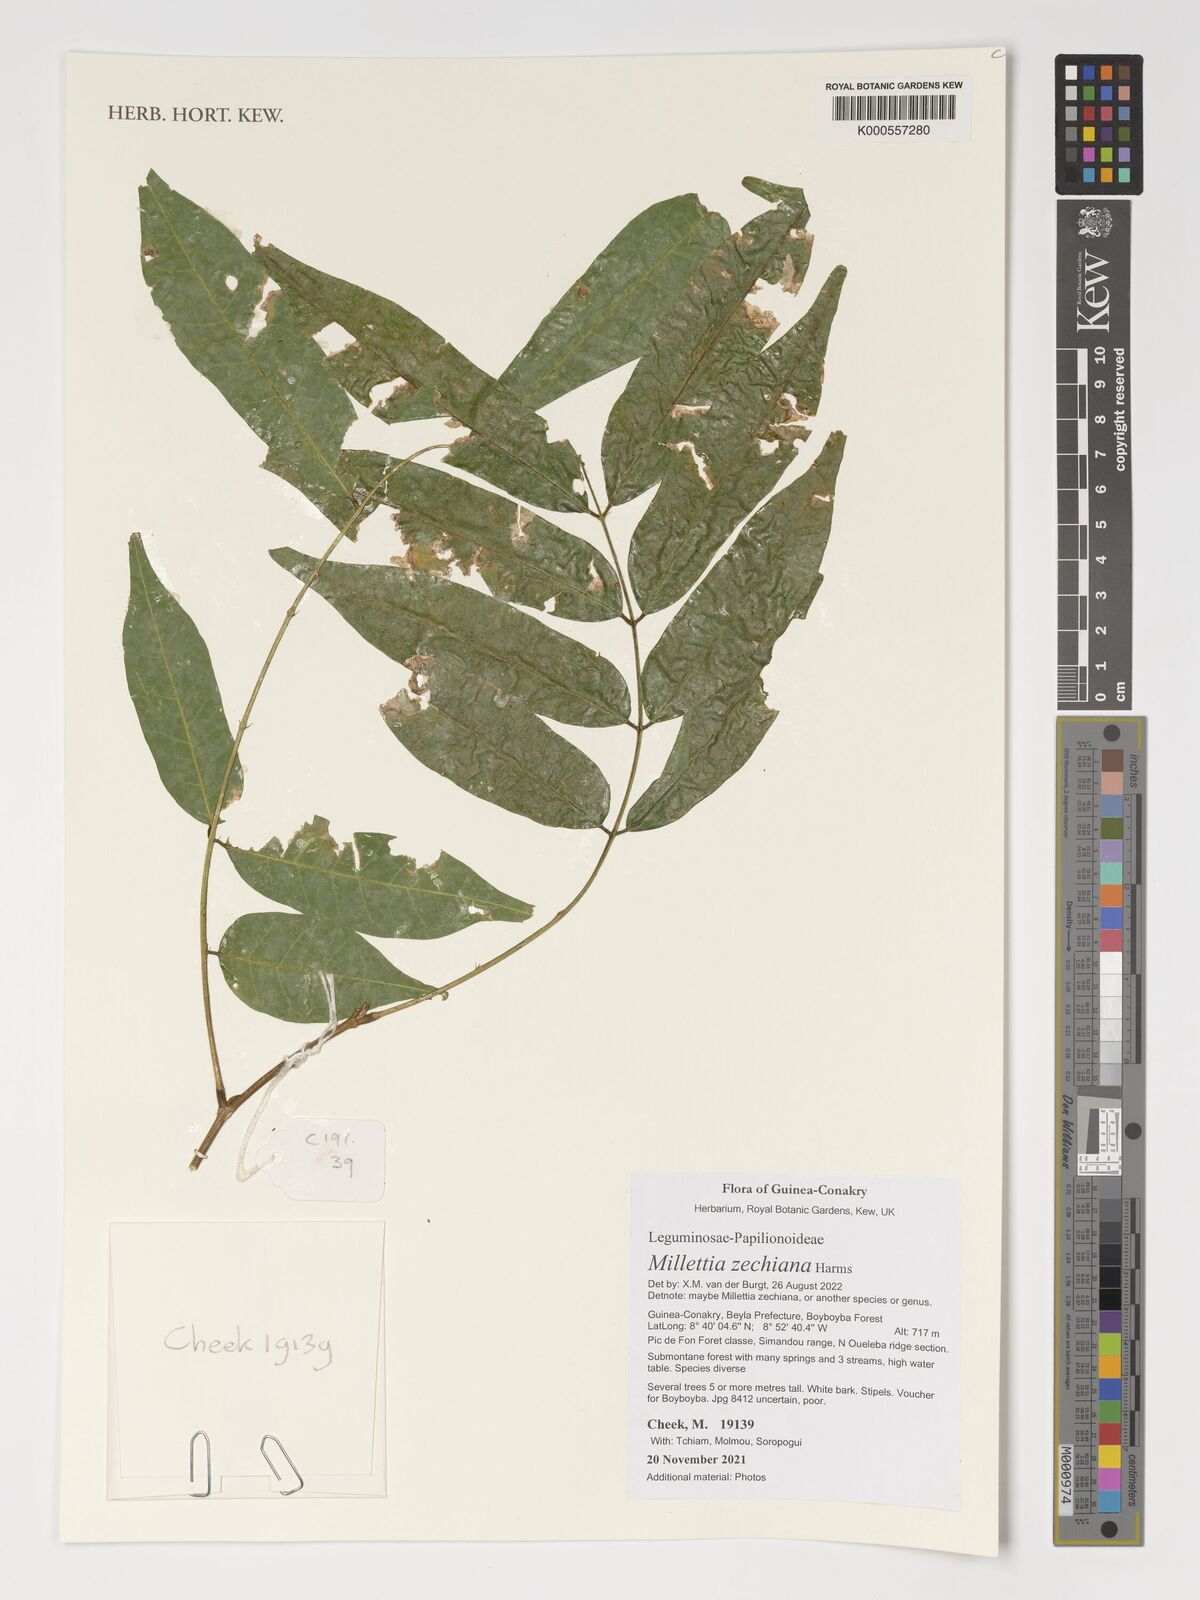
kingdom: Plantae
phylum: Tracheophyta
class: Magnoliopsida
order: Fabales
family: Fabaceae
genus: Millettia
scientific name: Millettia zechiana
